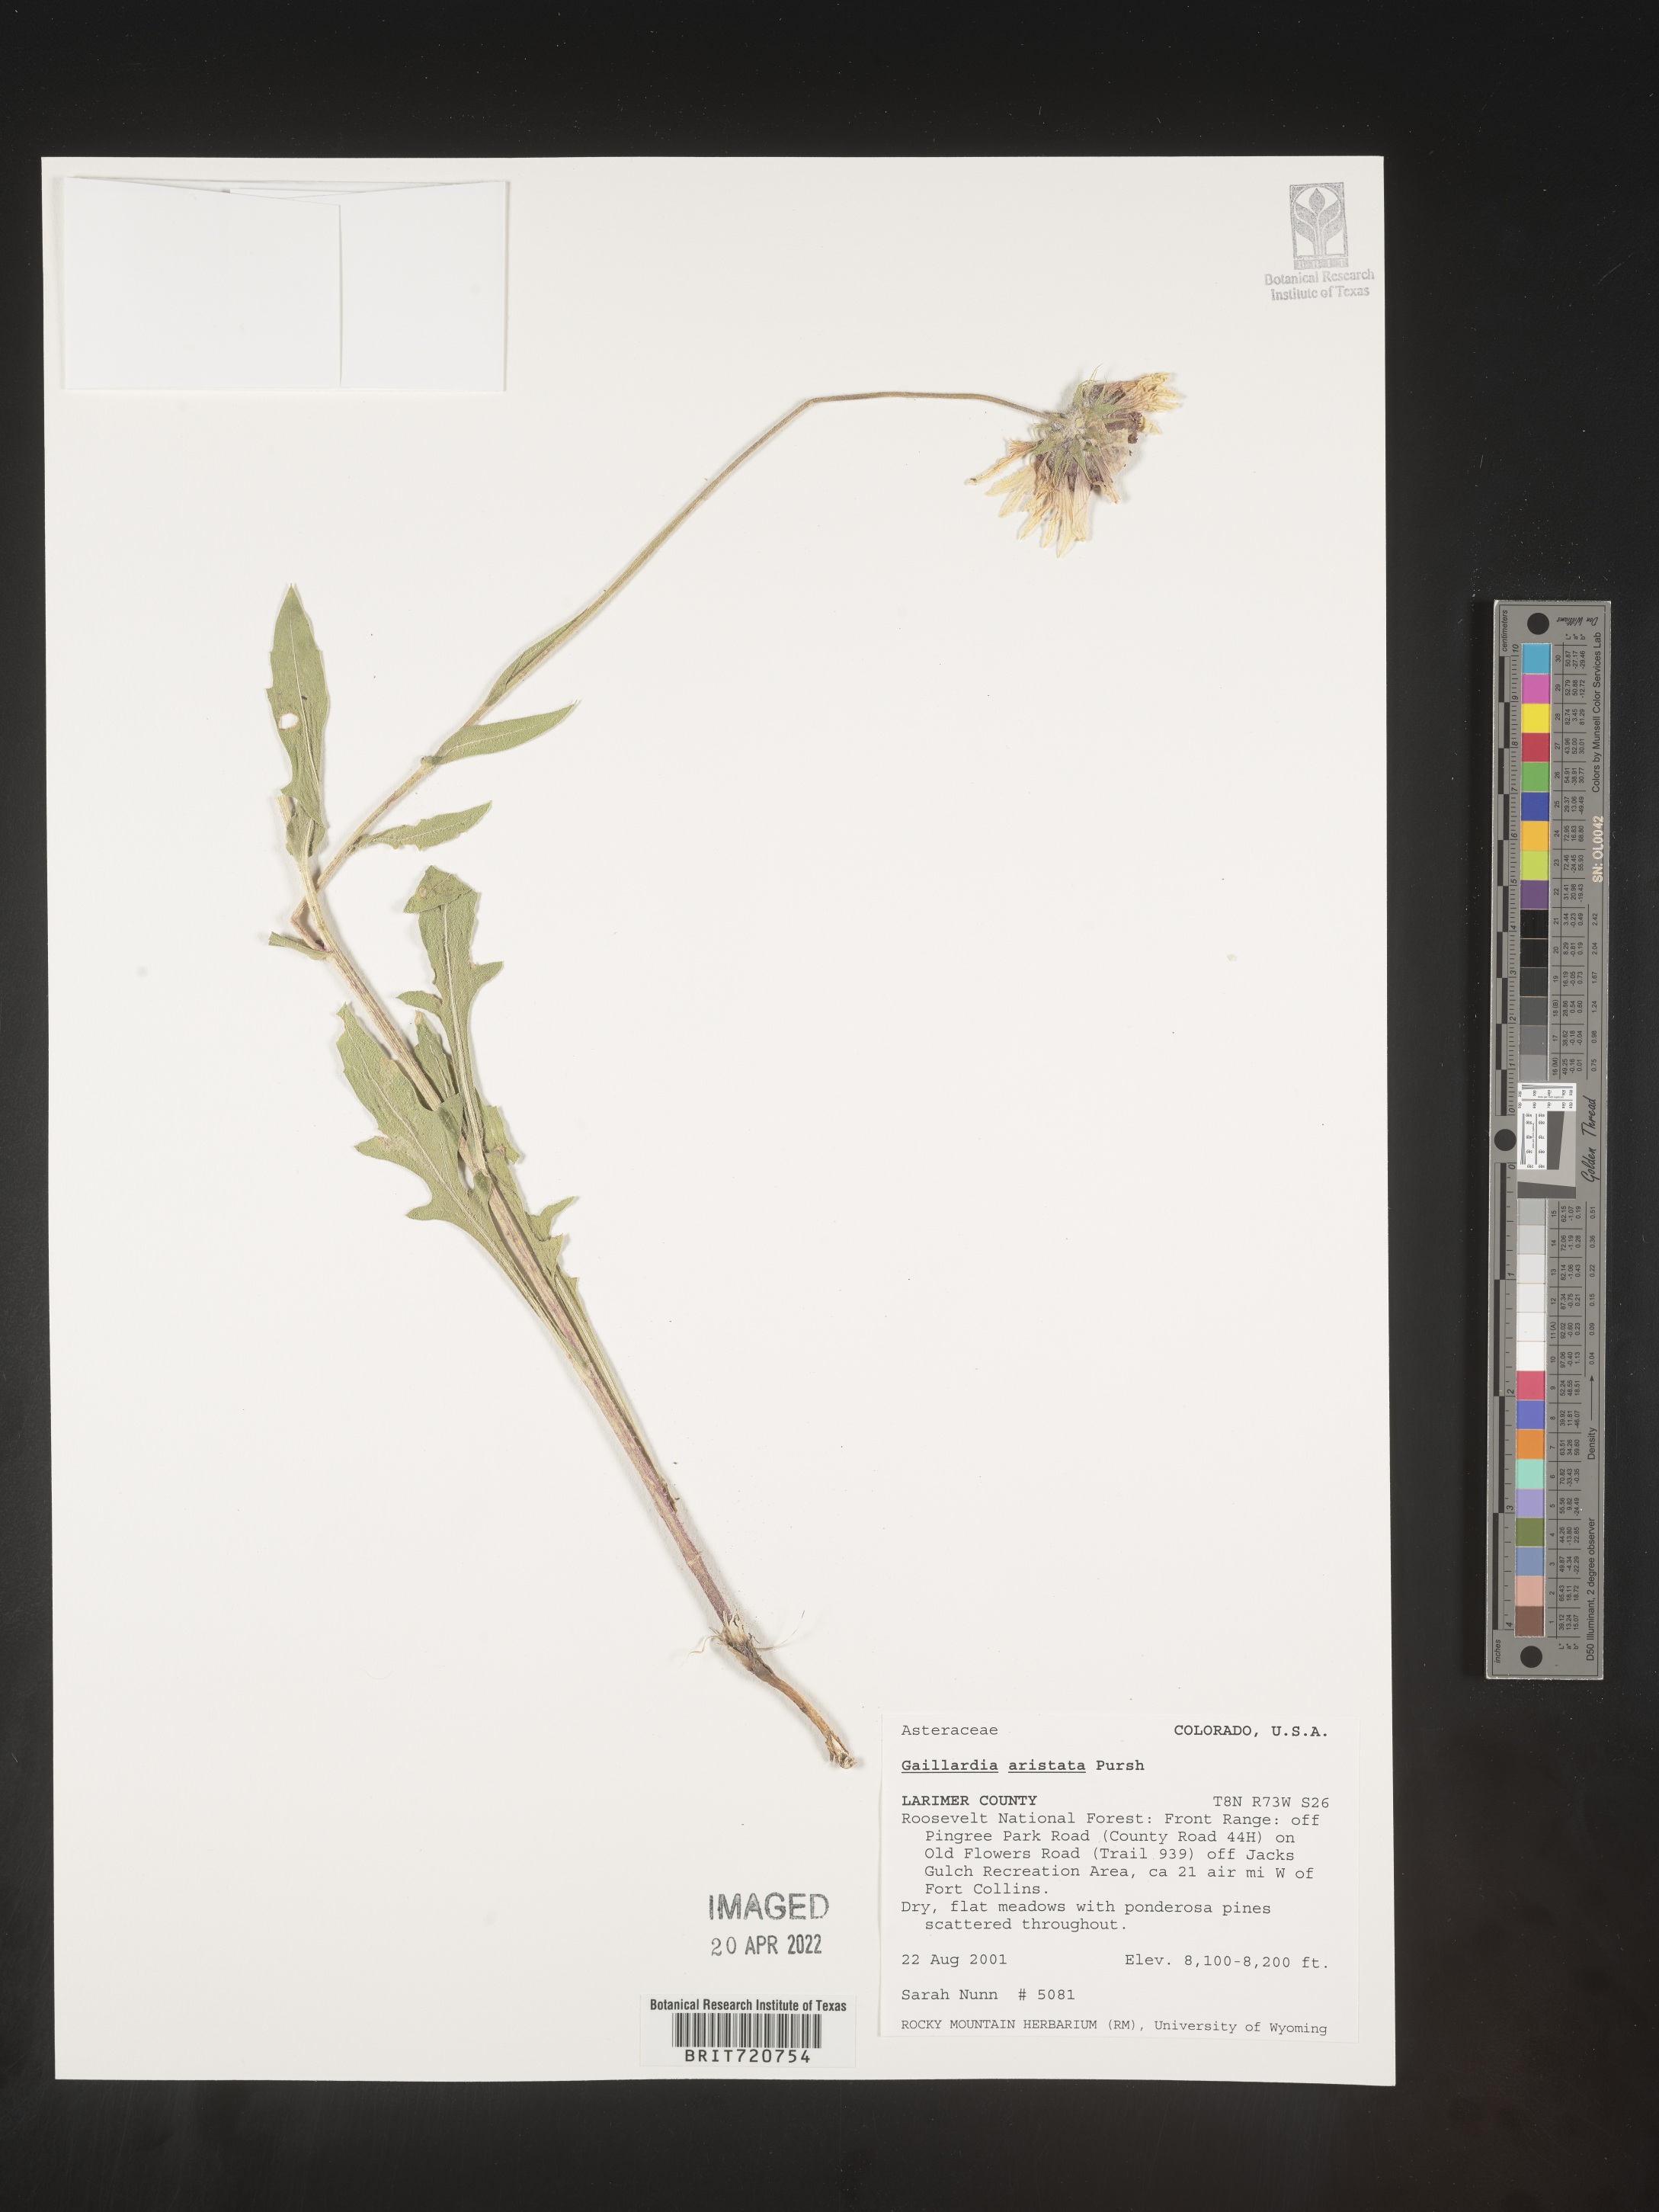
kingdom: Plantae
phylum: Tracheophyta
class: Magnoliopsida
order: Asterales
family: Asteraceae
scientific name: Asteraceae
